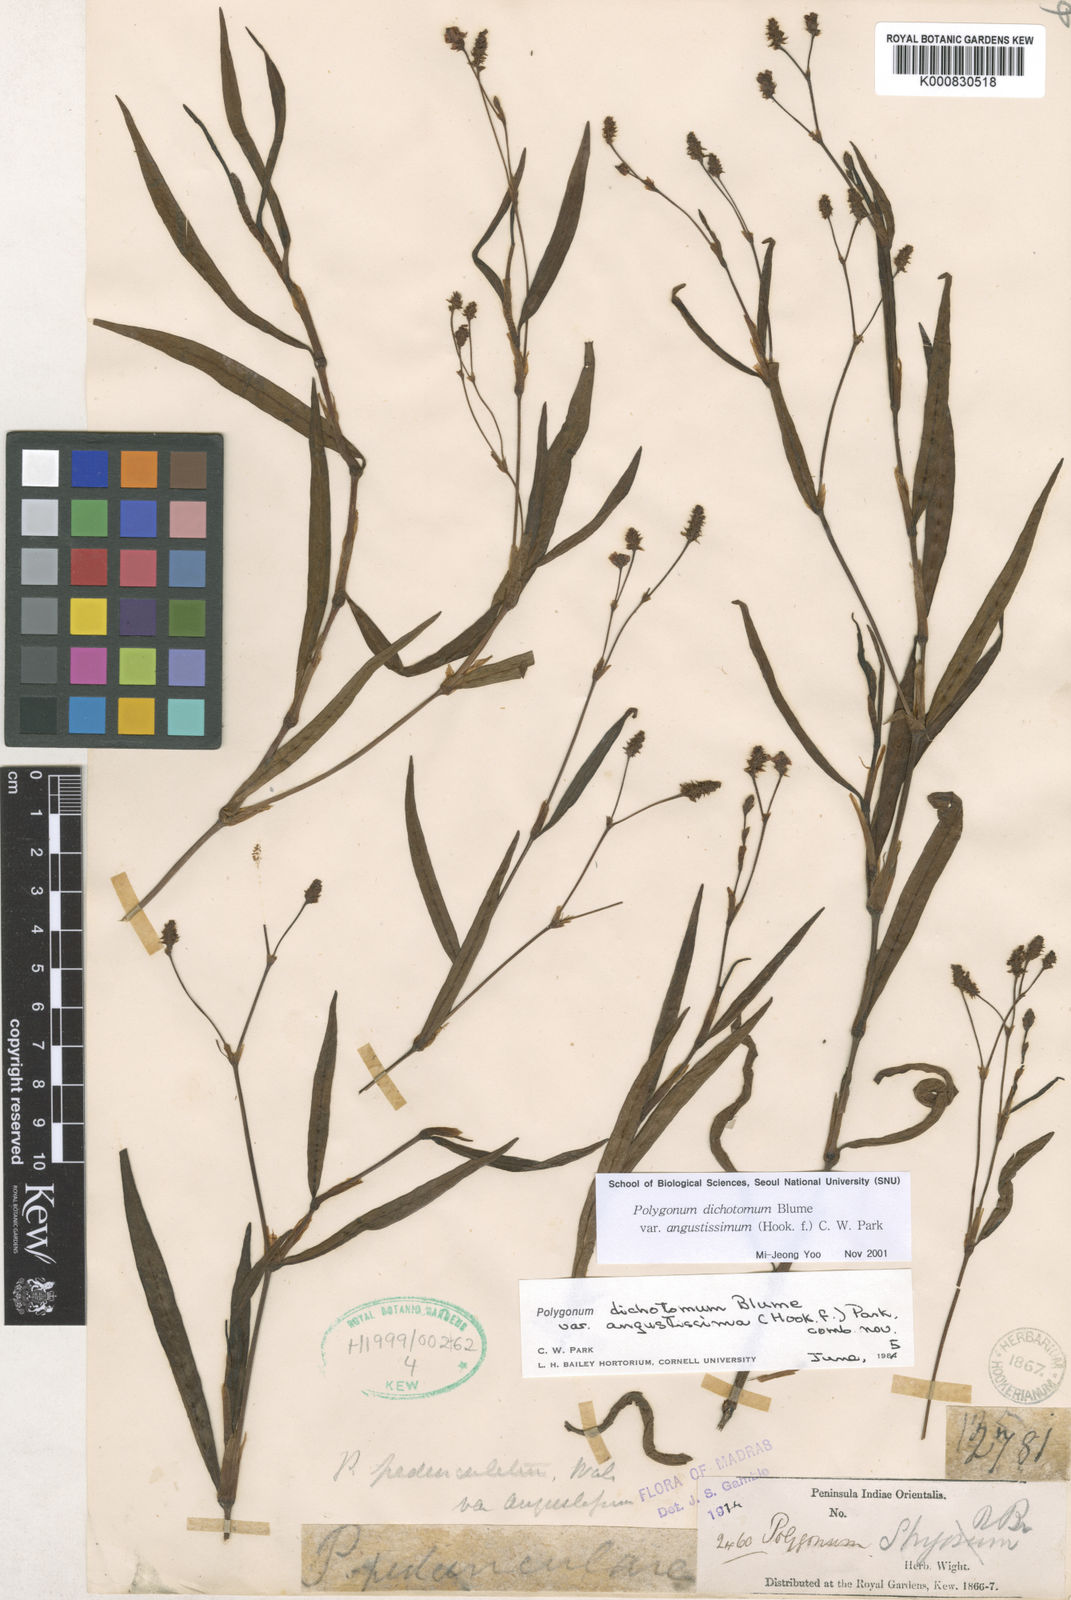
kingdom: Plantae
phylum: Tracheophyta
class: Magnoliopsida
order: Caryophyllales
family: Polygonaceae
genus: Persicaria
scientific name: Persicaria dichotoma
